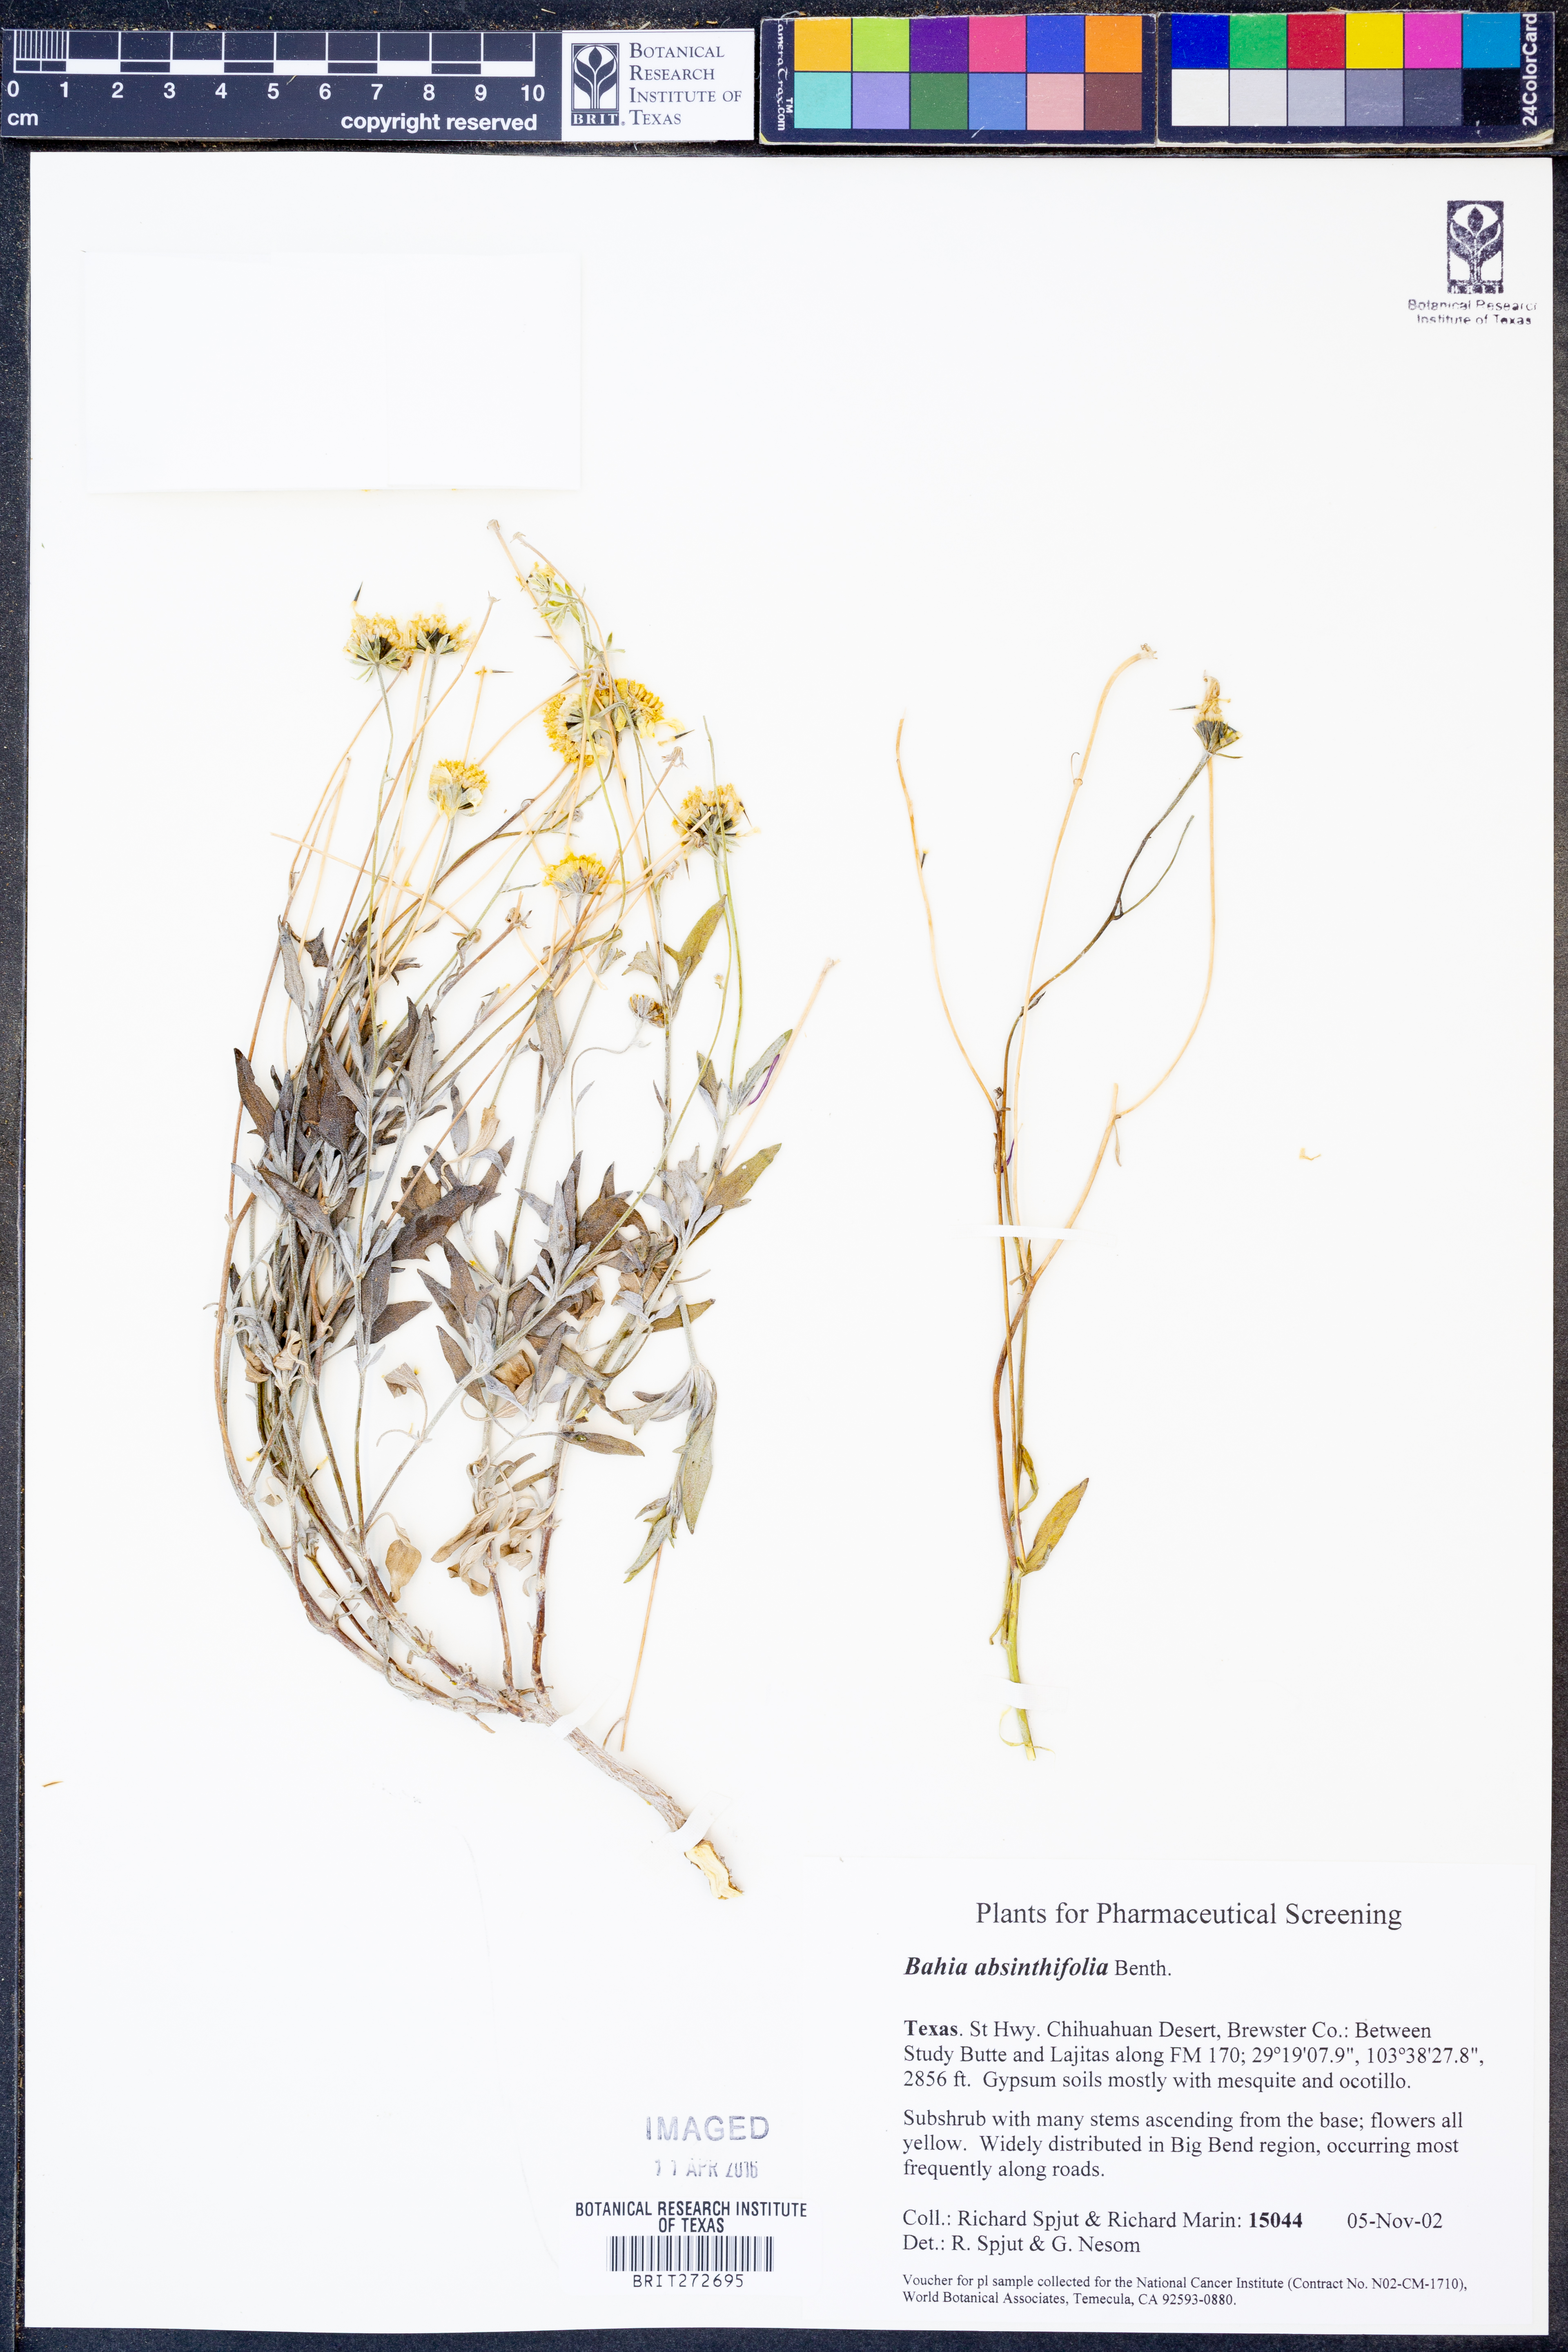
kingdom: Plantae
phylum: Tracheophyta
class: Magnoliopsida
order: Asterales
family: Asteraceae
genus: Picradeniopsis
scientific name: Picradeniopsis absinthifolia
